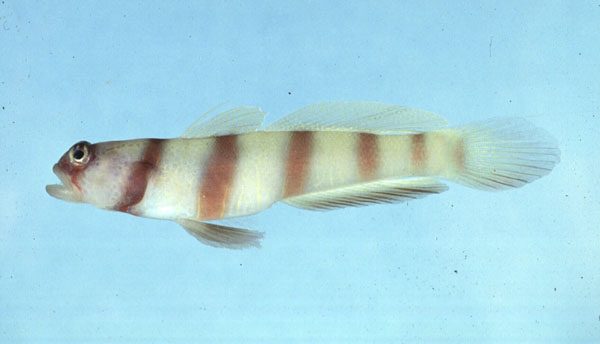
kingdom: Animalia
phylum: Chordata
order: Perciformes
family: Gobiidae
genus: Amblyeleotris
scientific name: Amblyeleotris steinitzi
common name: Steinitz' prawn-goby
